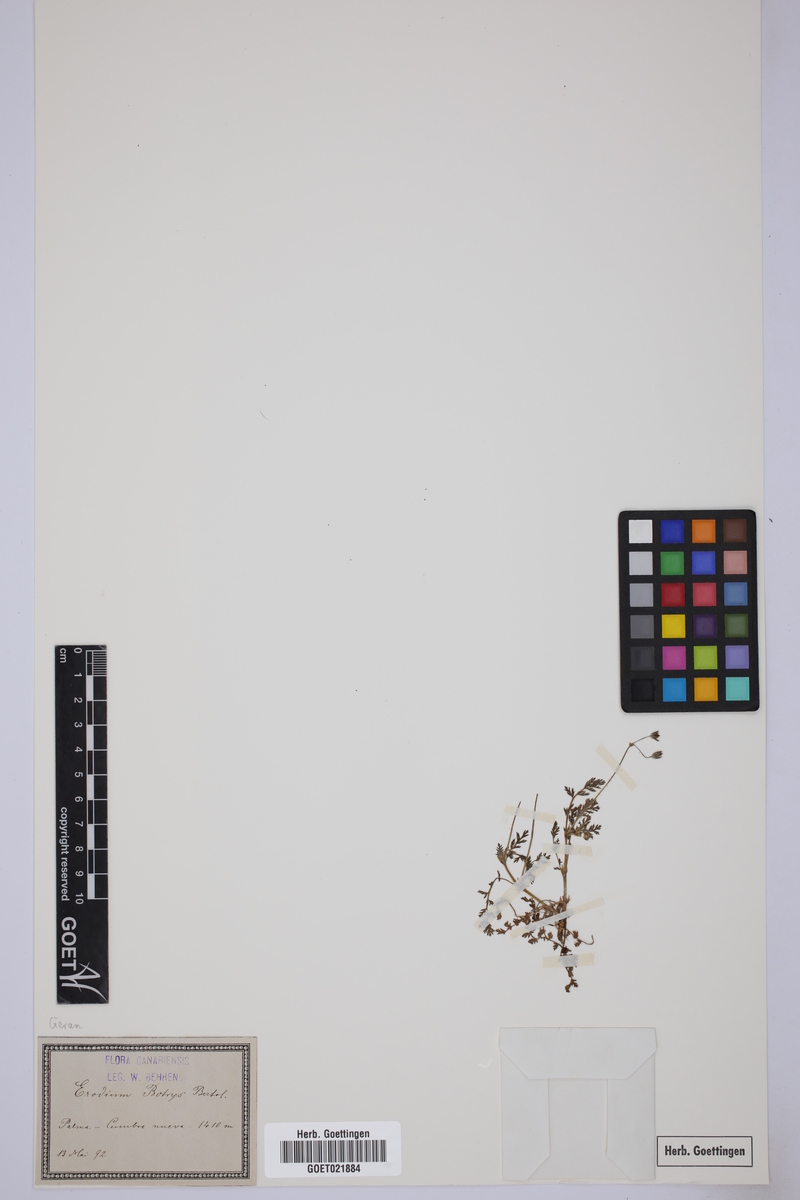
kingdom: Plantae
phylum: Tracheophyta
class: Magnoliopsida
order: Geraniales
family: Geraniaceae
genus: Erodium
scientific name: Erodium botrys
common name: Mediterranean stork's-bill
